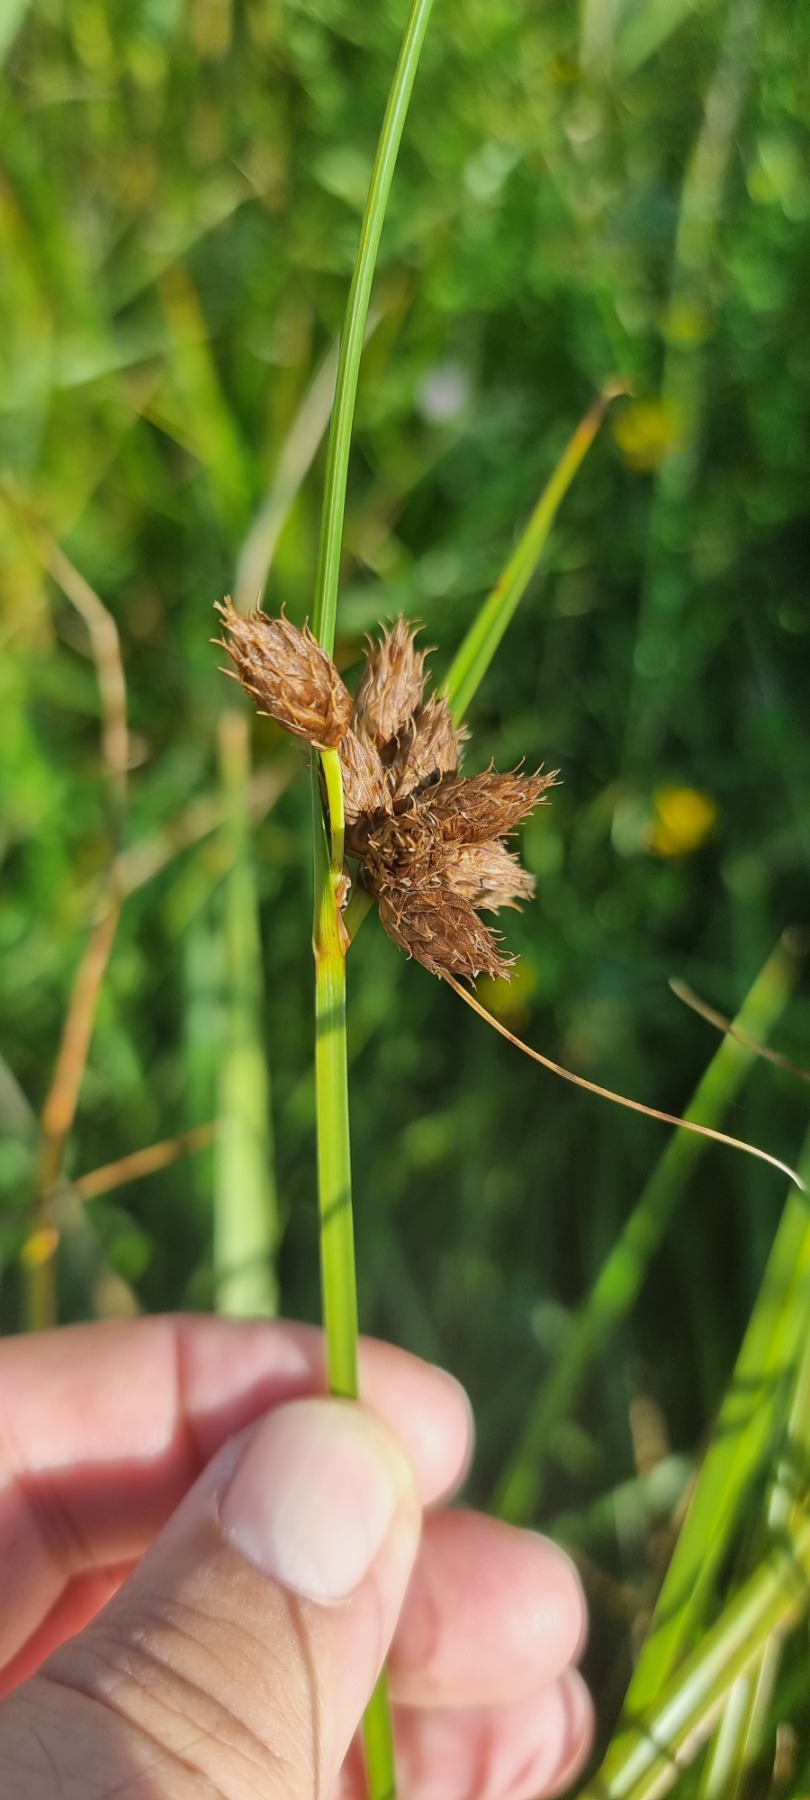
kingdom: Plantae
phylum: Tracheophyta
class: Liliopsida
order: Poales
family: Cyperaceae
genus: Bolboschoenus
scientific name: Bolboschoenus maritimus
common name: Strand-kogleaks
